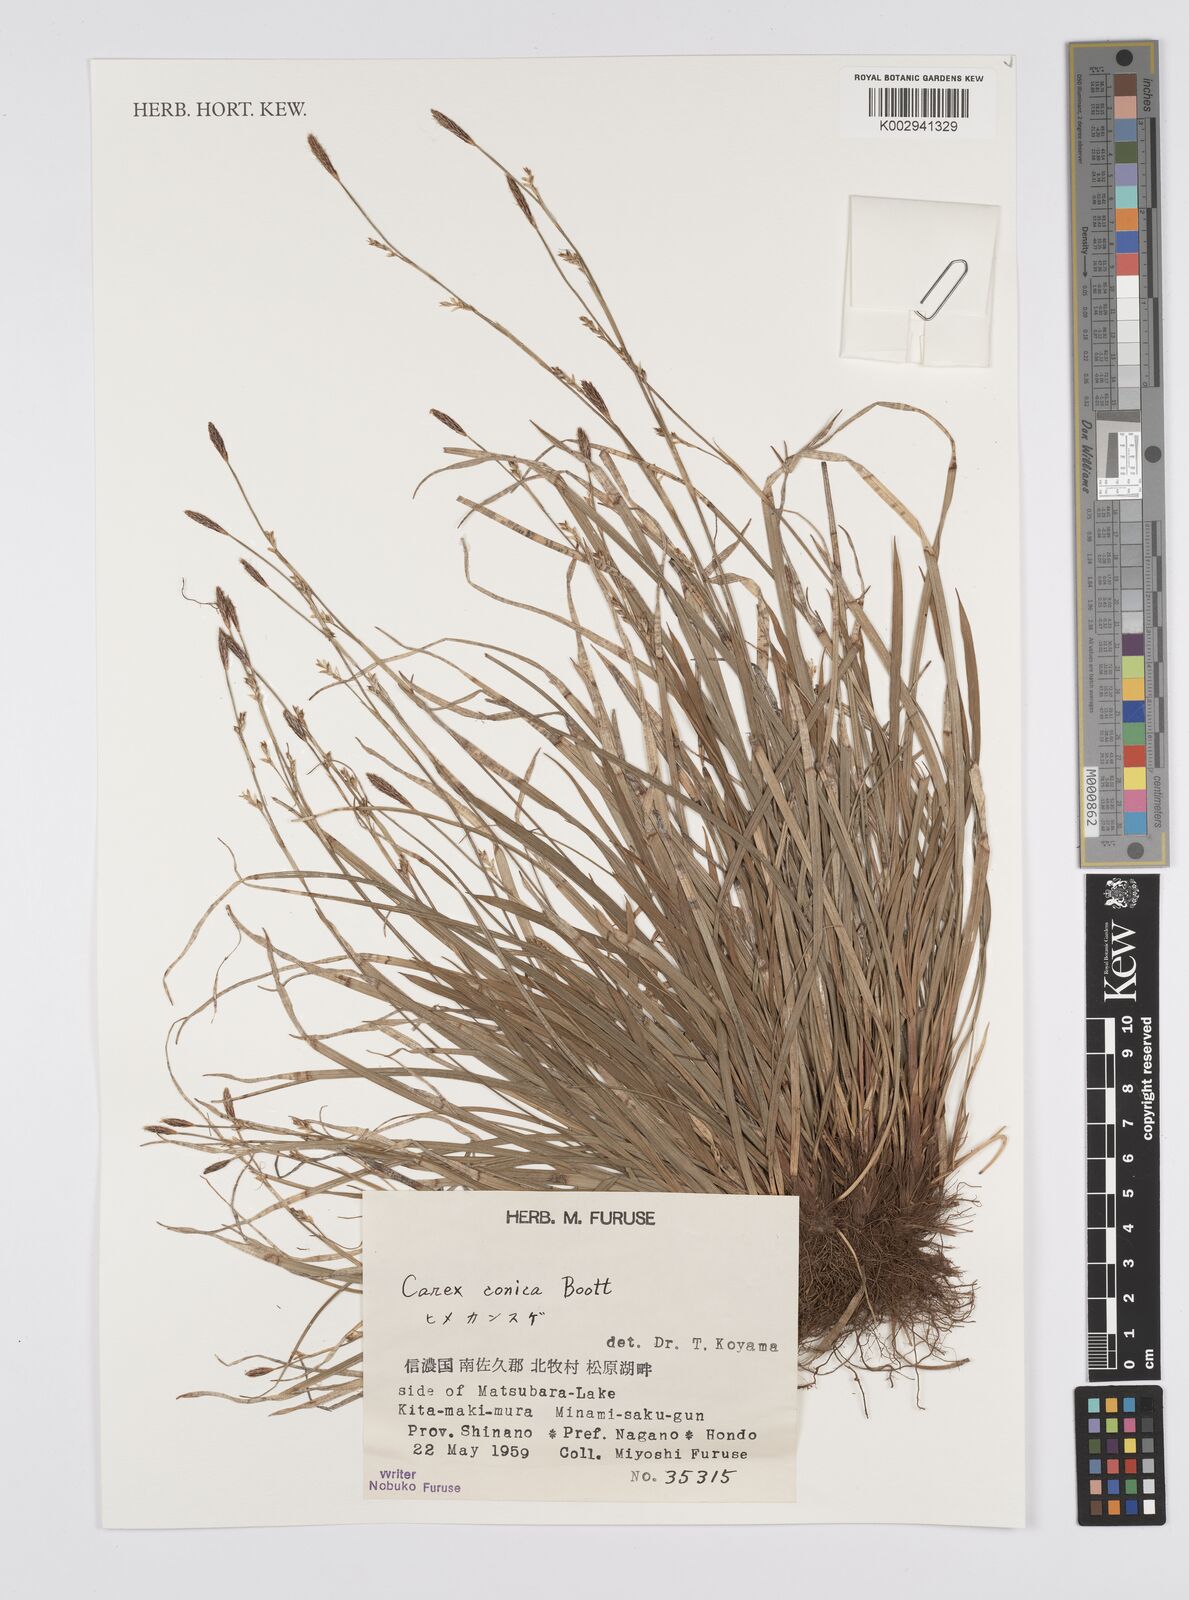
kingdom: Plantae
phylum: Tracheophyta
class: Liliopsida
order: Poales
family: Cyperaceae
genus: Carex
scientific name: Carex conica
